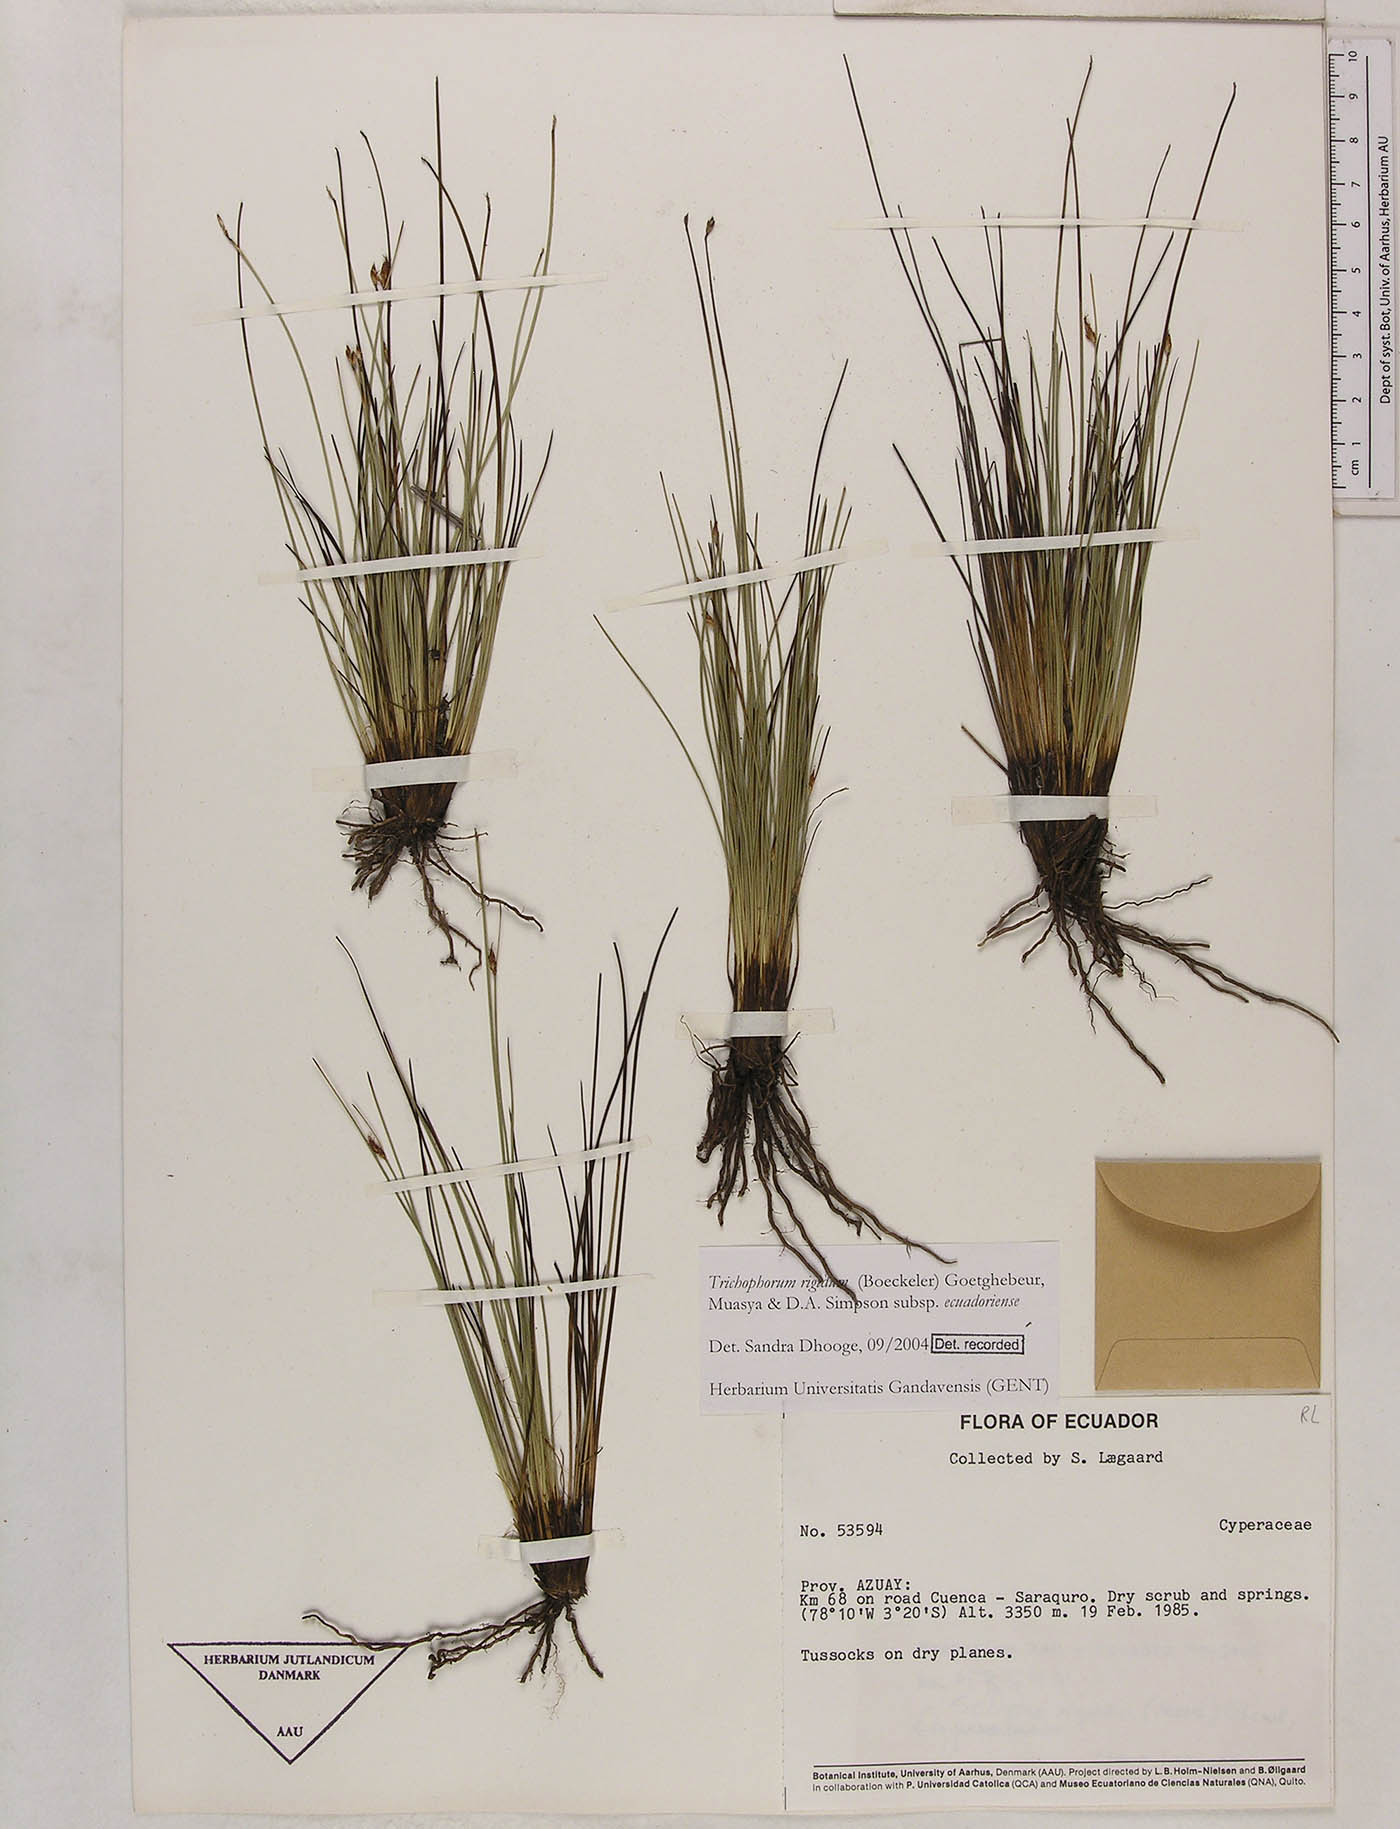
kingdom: Plantae
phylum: Tracheophyta
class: Liliopsida
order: Poales
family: Cyperaceae
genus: Trichophorum
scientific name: Trichophorum rigidum
